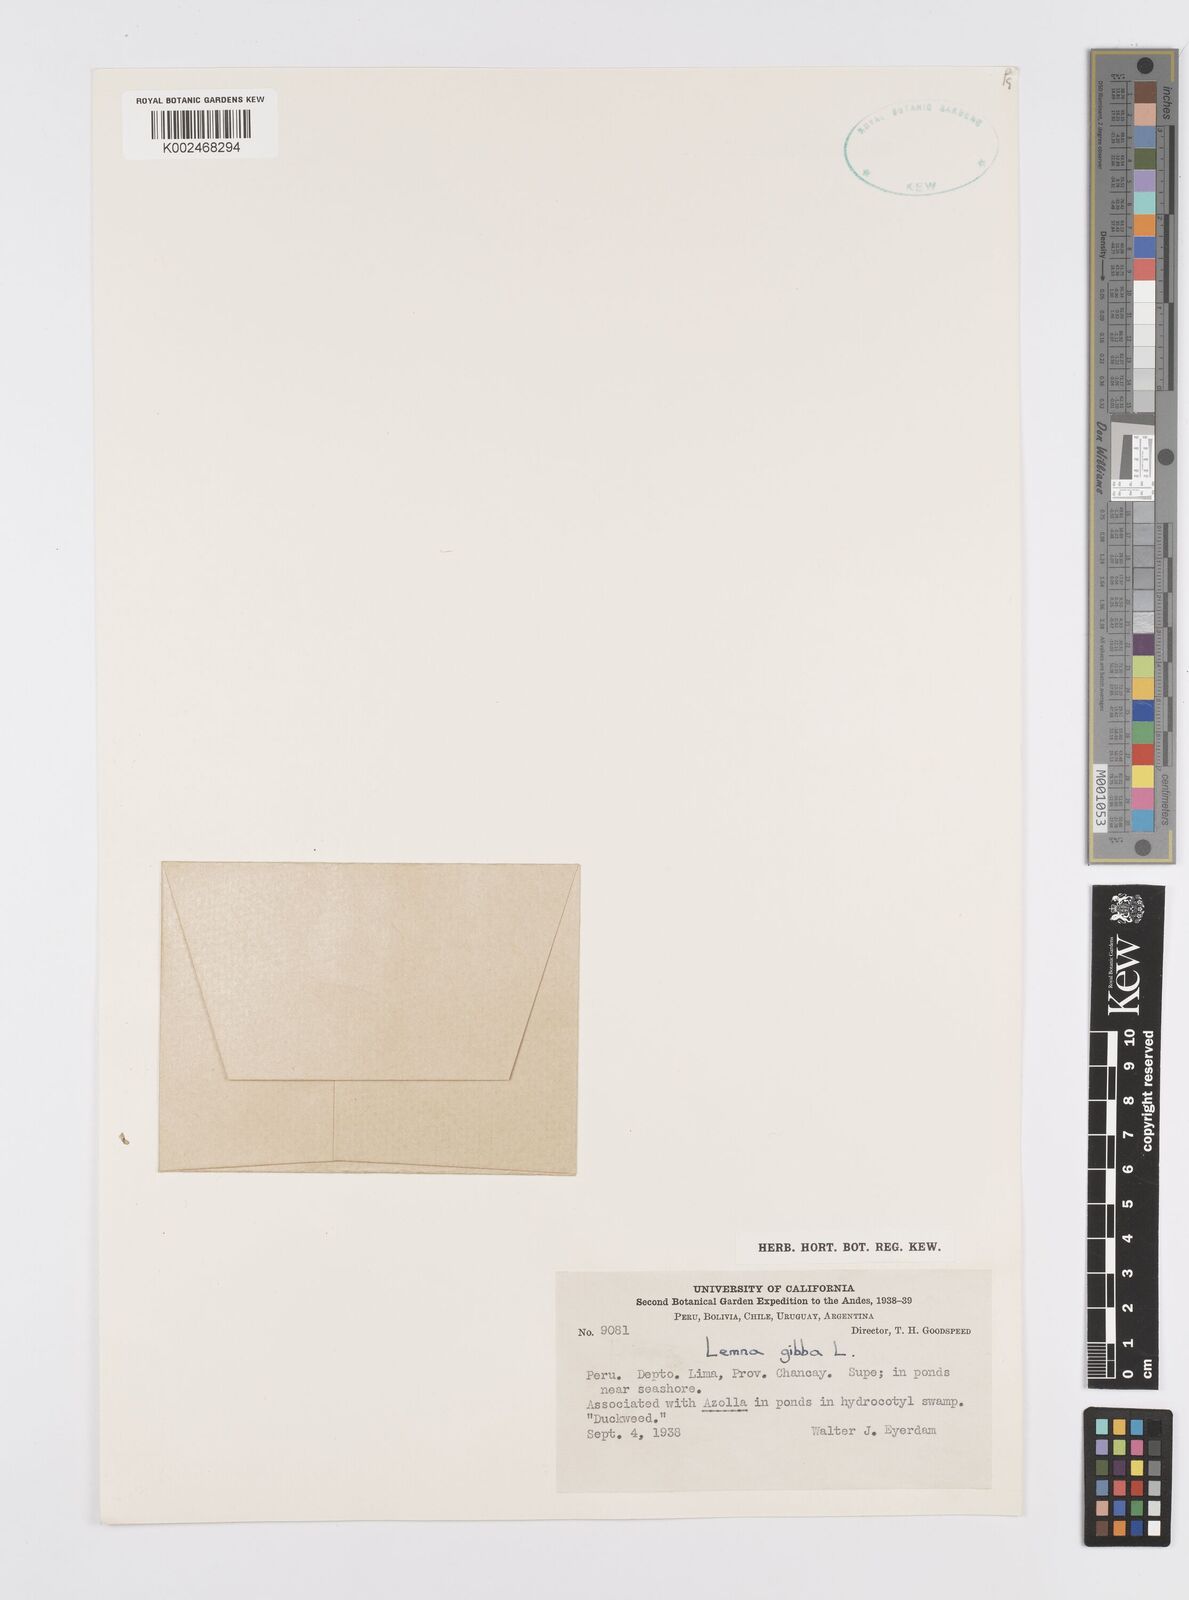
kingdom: Plantae
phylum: Tracheophyta
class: Liliopsida
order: Alismatales
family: Araceae
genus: Lemna
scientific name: Lemna gibba
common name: Fat duckweed
